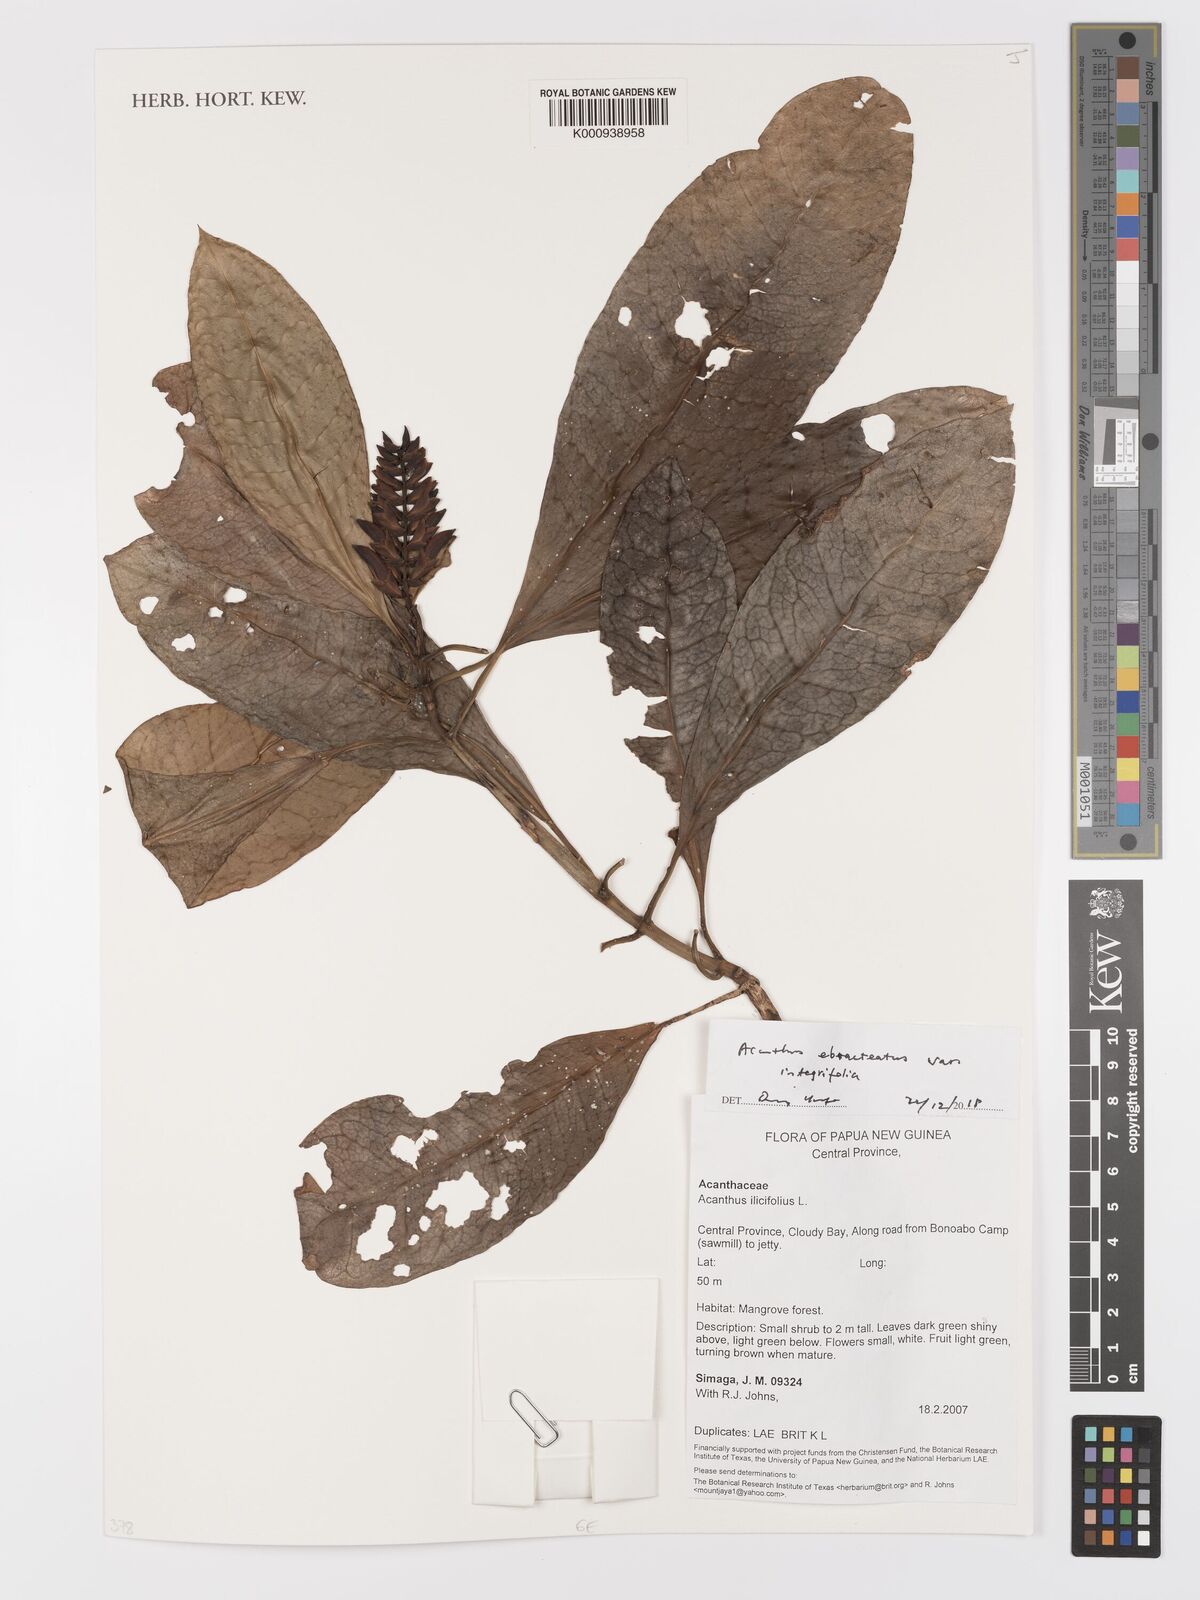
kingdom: Plantae
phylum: Tracheophyta
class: Magnoliopsida
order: Lamiales
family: Acanthaceae
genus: Acanthus
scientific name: Acanthus ebracteatus
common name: Acanthus
